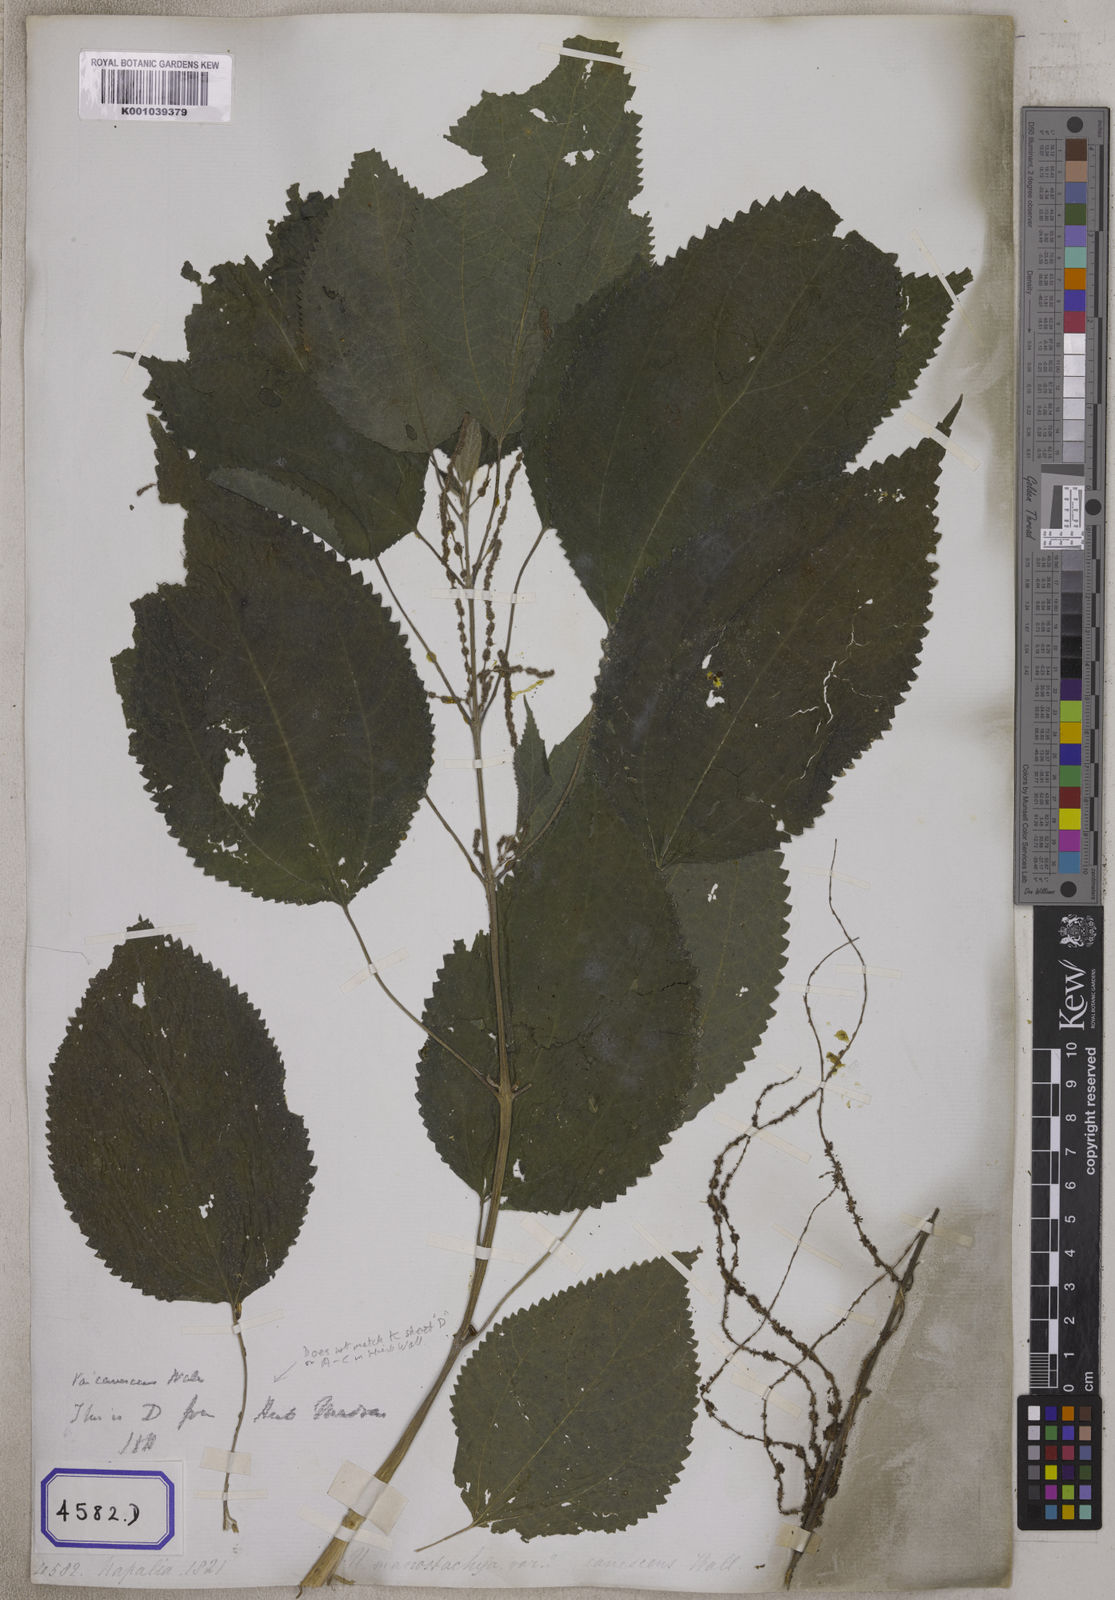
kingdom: Plantae
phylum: Tracheophyta
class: Magnoliopsida
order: Rosales
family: Urticaceae
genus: Boehmeria
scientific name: Boehmeria virgata
